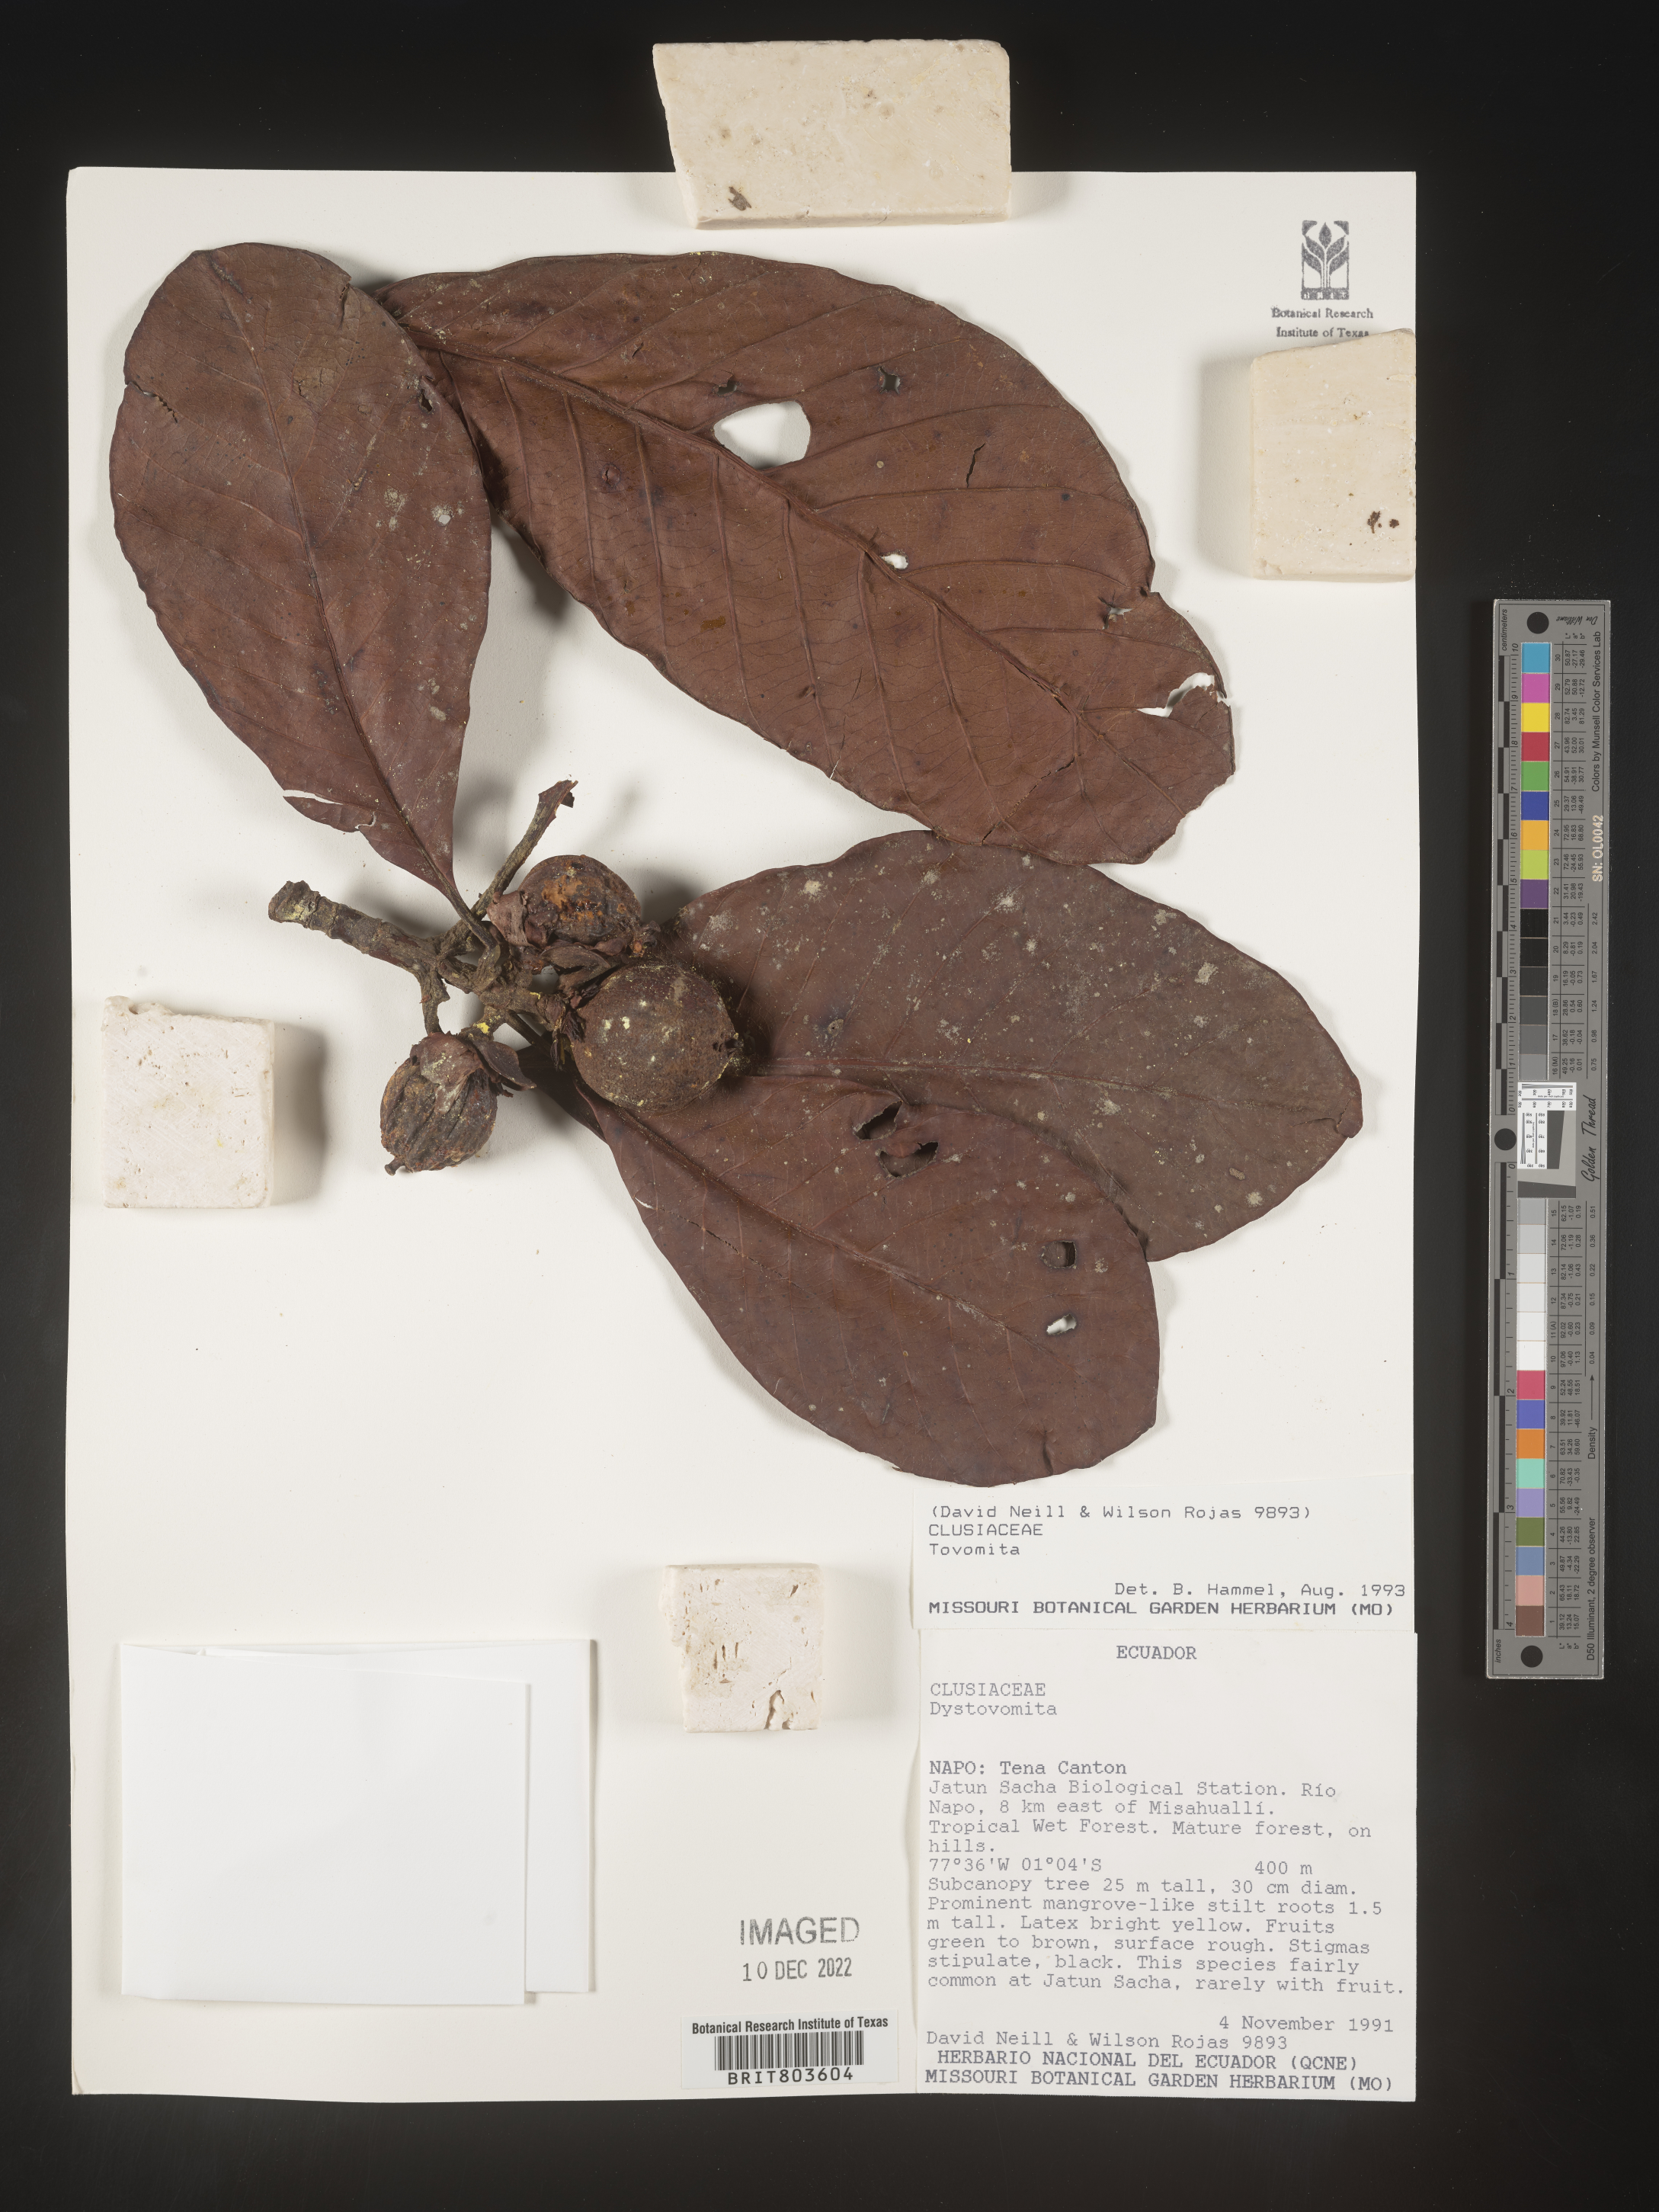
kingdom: Plantae
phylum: Tracheophyta
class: Magnoliopsida
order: Malpighiales
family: Clusiaceae
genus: Tovomita
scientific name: Tovomita
